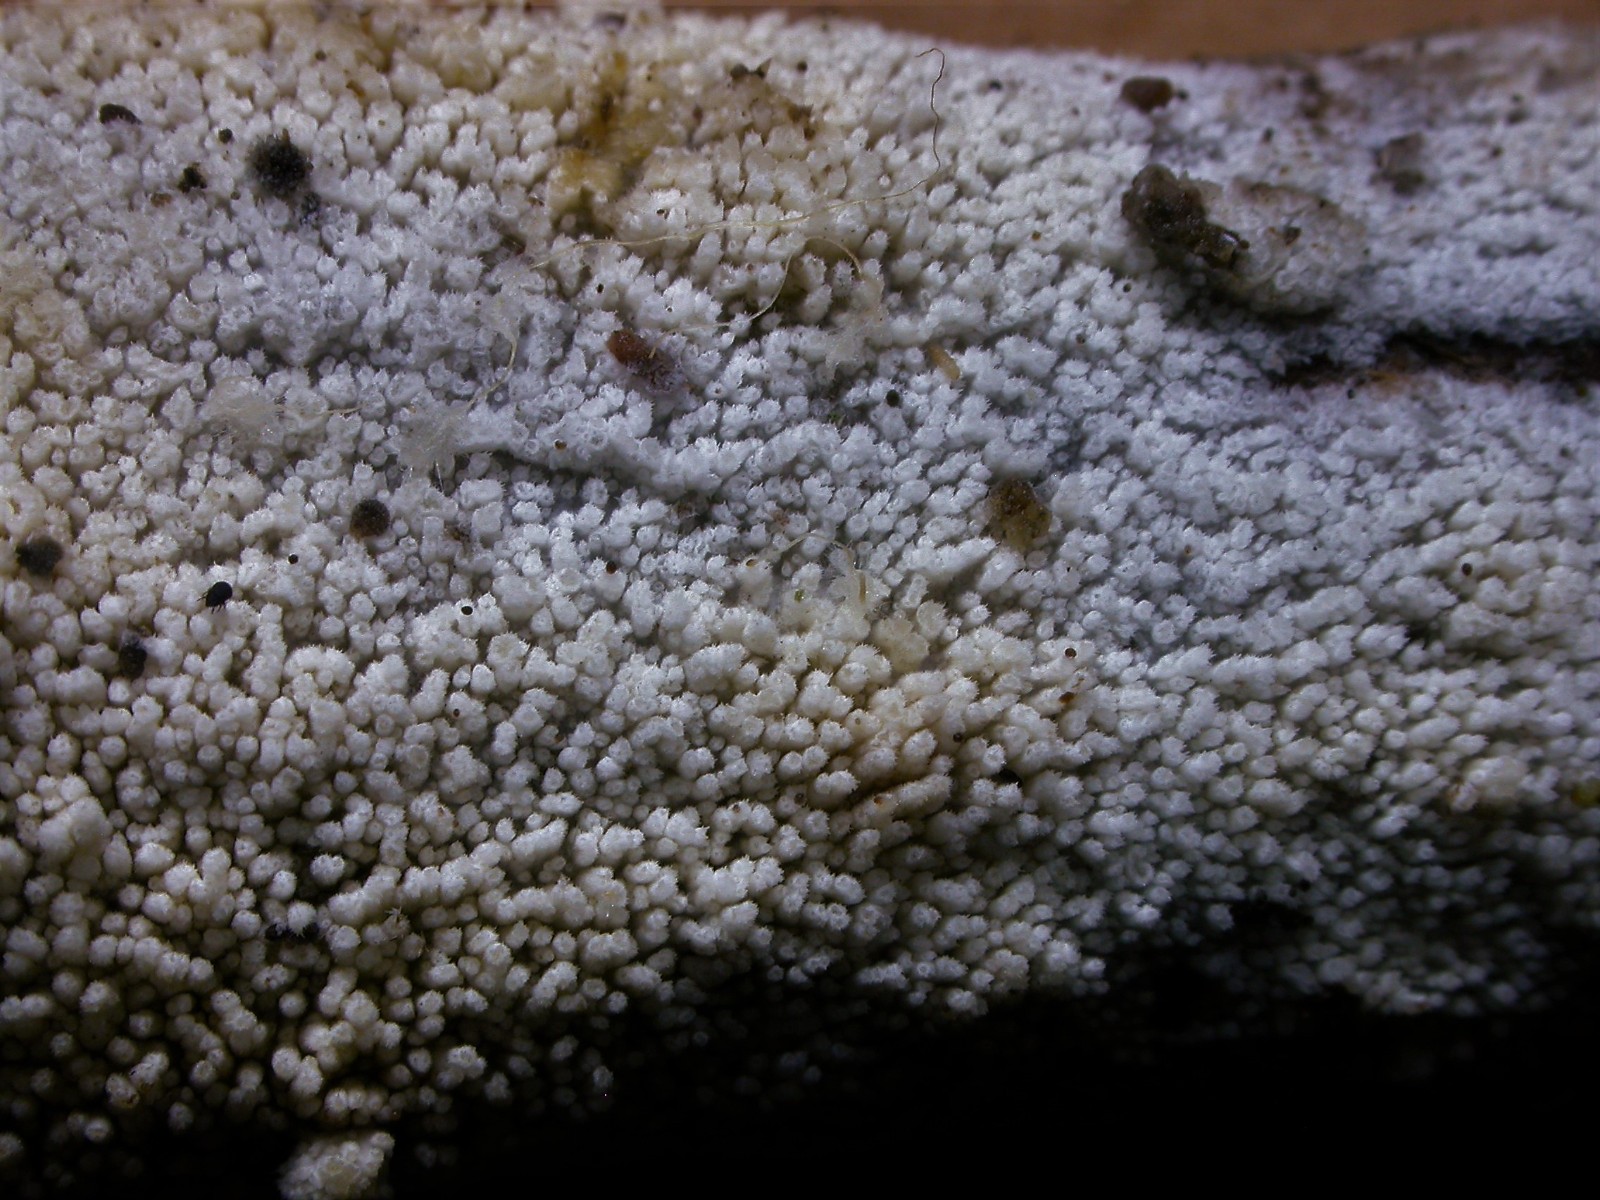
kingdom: Fungi
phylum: Basidiomycota
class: Agaricomycetes
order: Hymenochaetales
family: Hyphodontiaceae
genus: Hyphodontia
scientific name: Hyphodontia barba-jovis
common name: skægget tandsvamp
